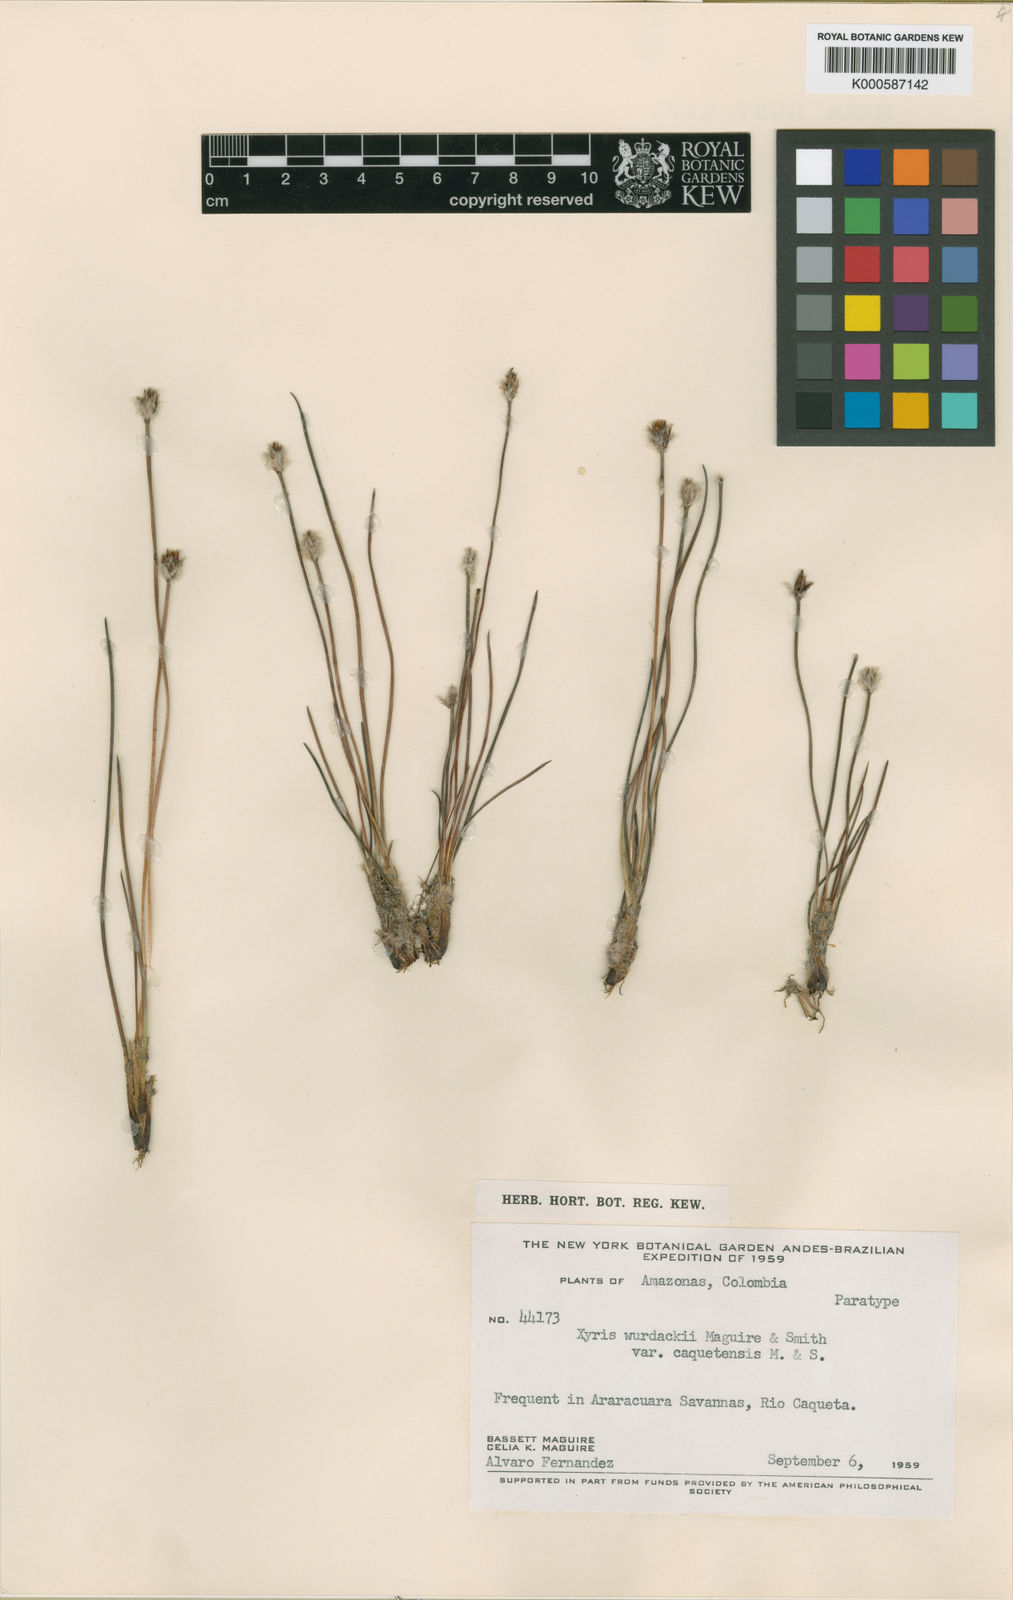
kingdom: Plantae
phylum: Tracheophyta
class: Liliopsida
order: Poales
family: Xyridaceae
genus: Xyris
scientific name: Xyris wurdackii
